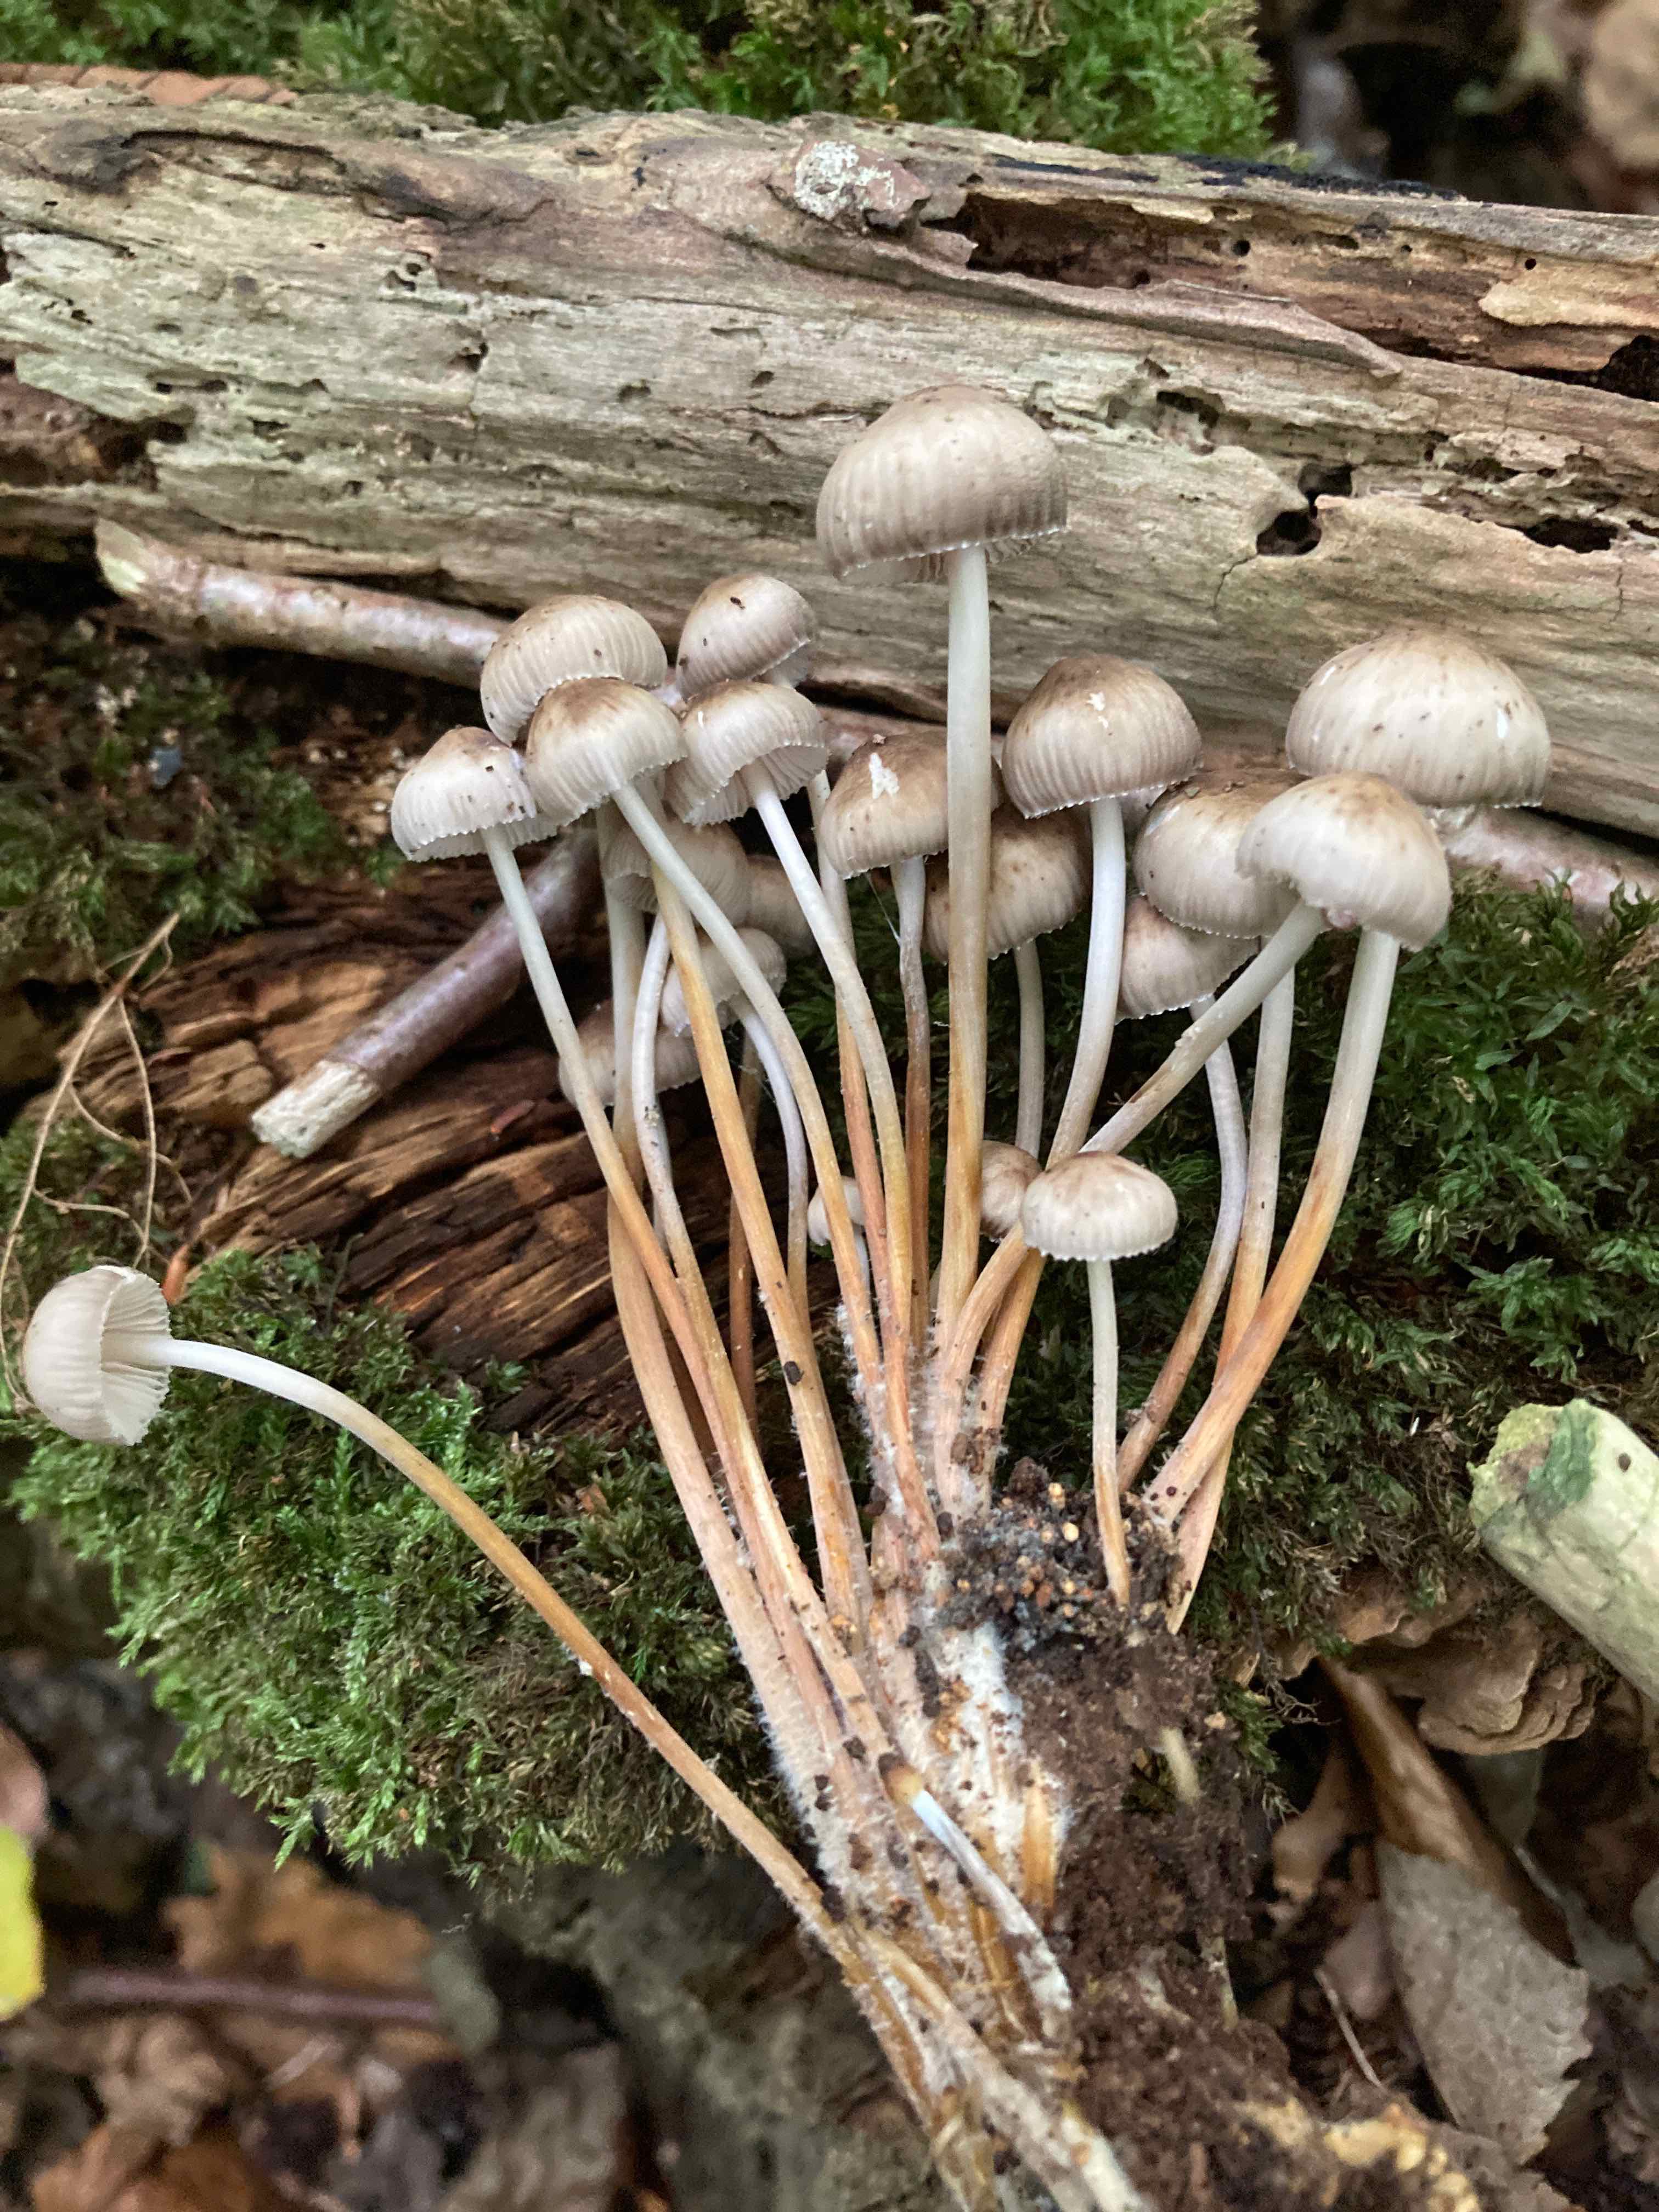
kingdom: Fungi
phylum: Basidiomycota
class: Agaricomycetes
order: Agaricales
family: Mycenaceae
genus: Mycena
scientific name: Mycena inclinata
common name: nikkende huesvamp
